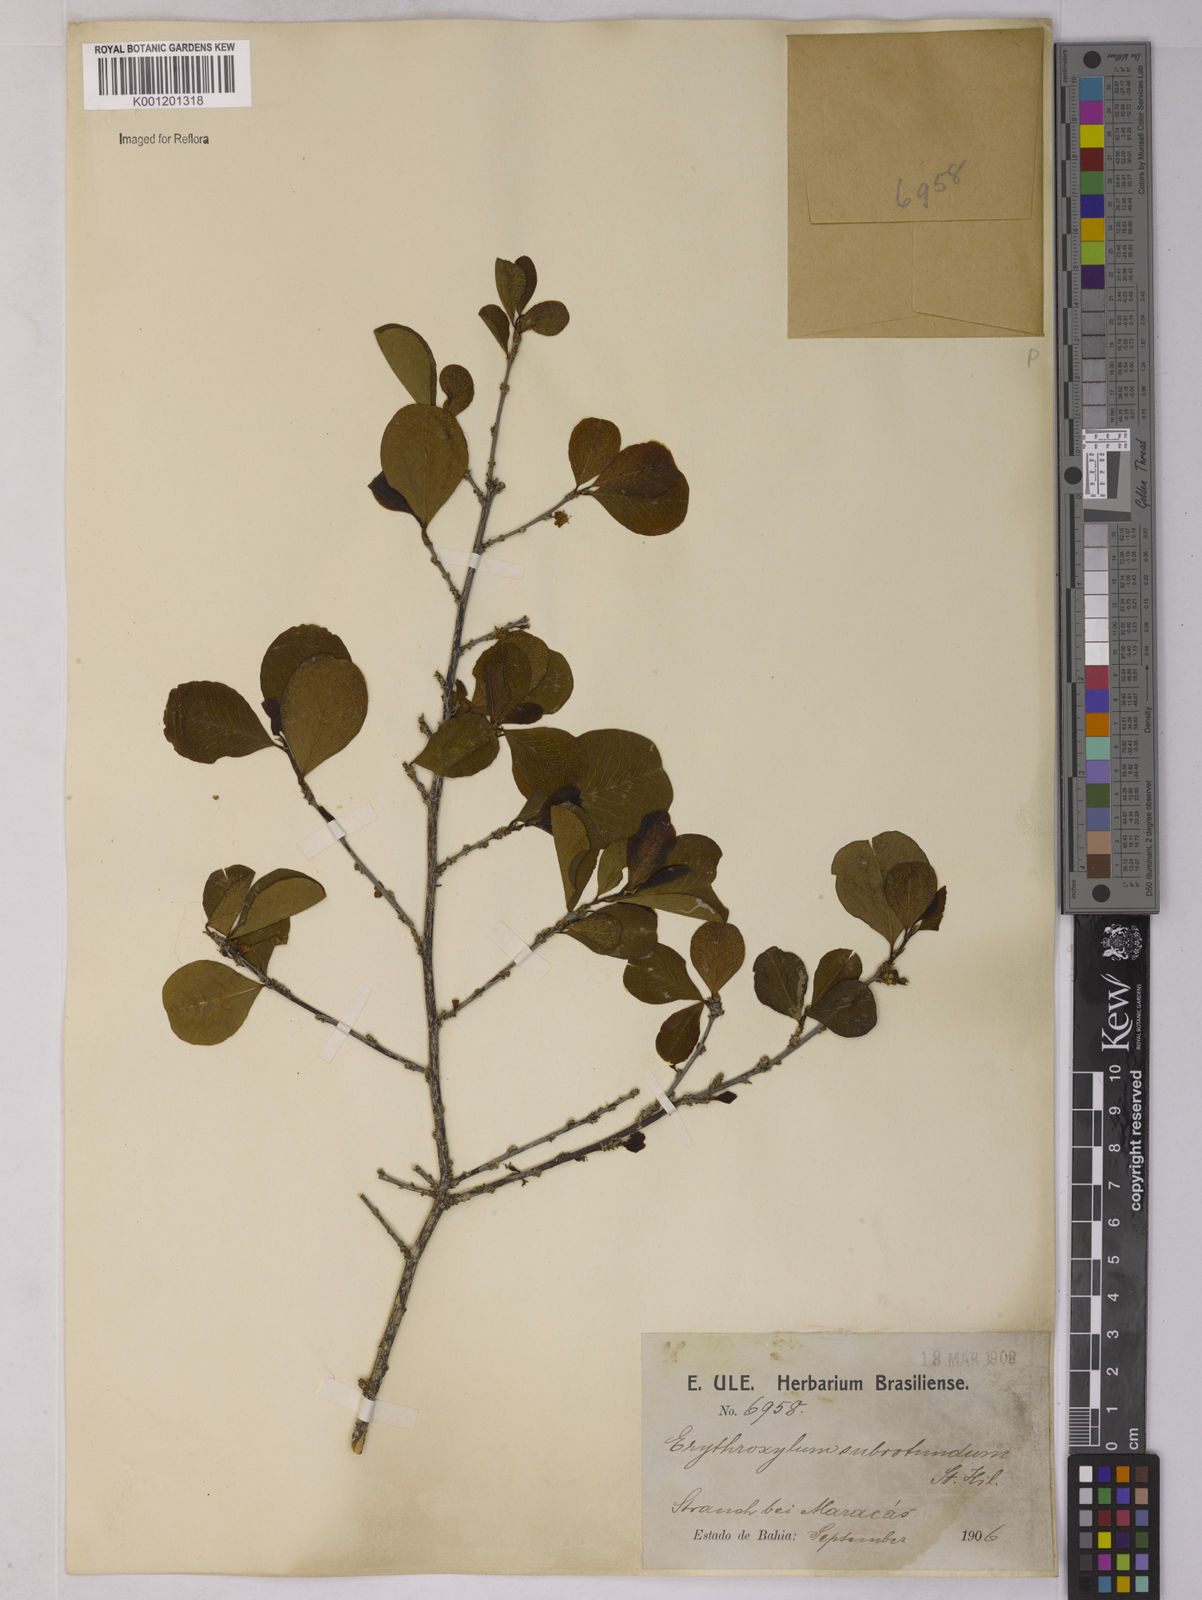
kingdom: Plantae
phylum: Tracheophyta
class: Magnoliopsida
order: Malpighiales
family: Erythroxylaceae
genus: Erythroxylum
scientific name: Erythroxylum subrotundum
